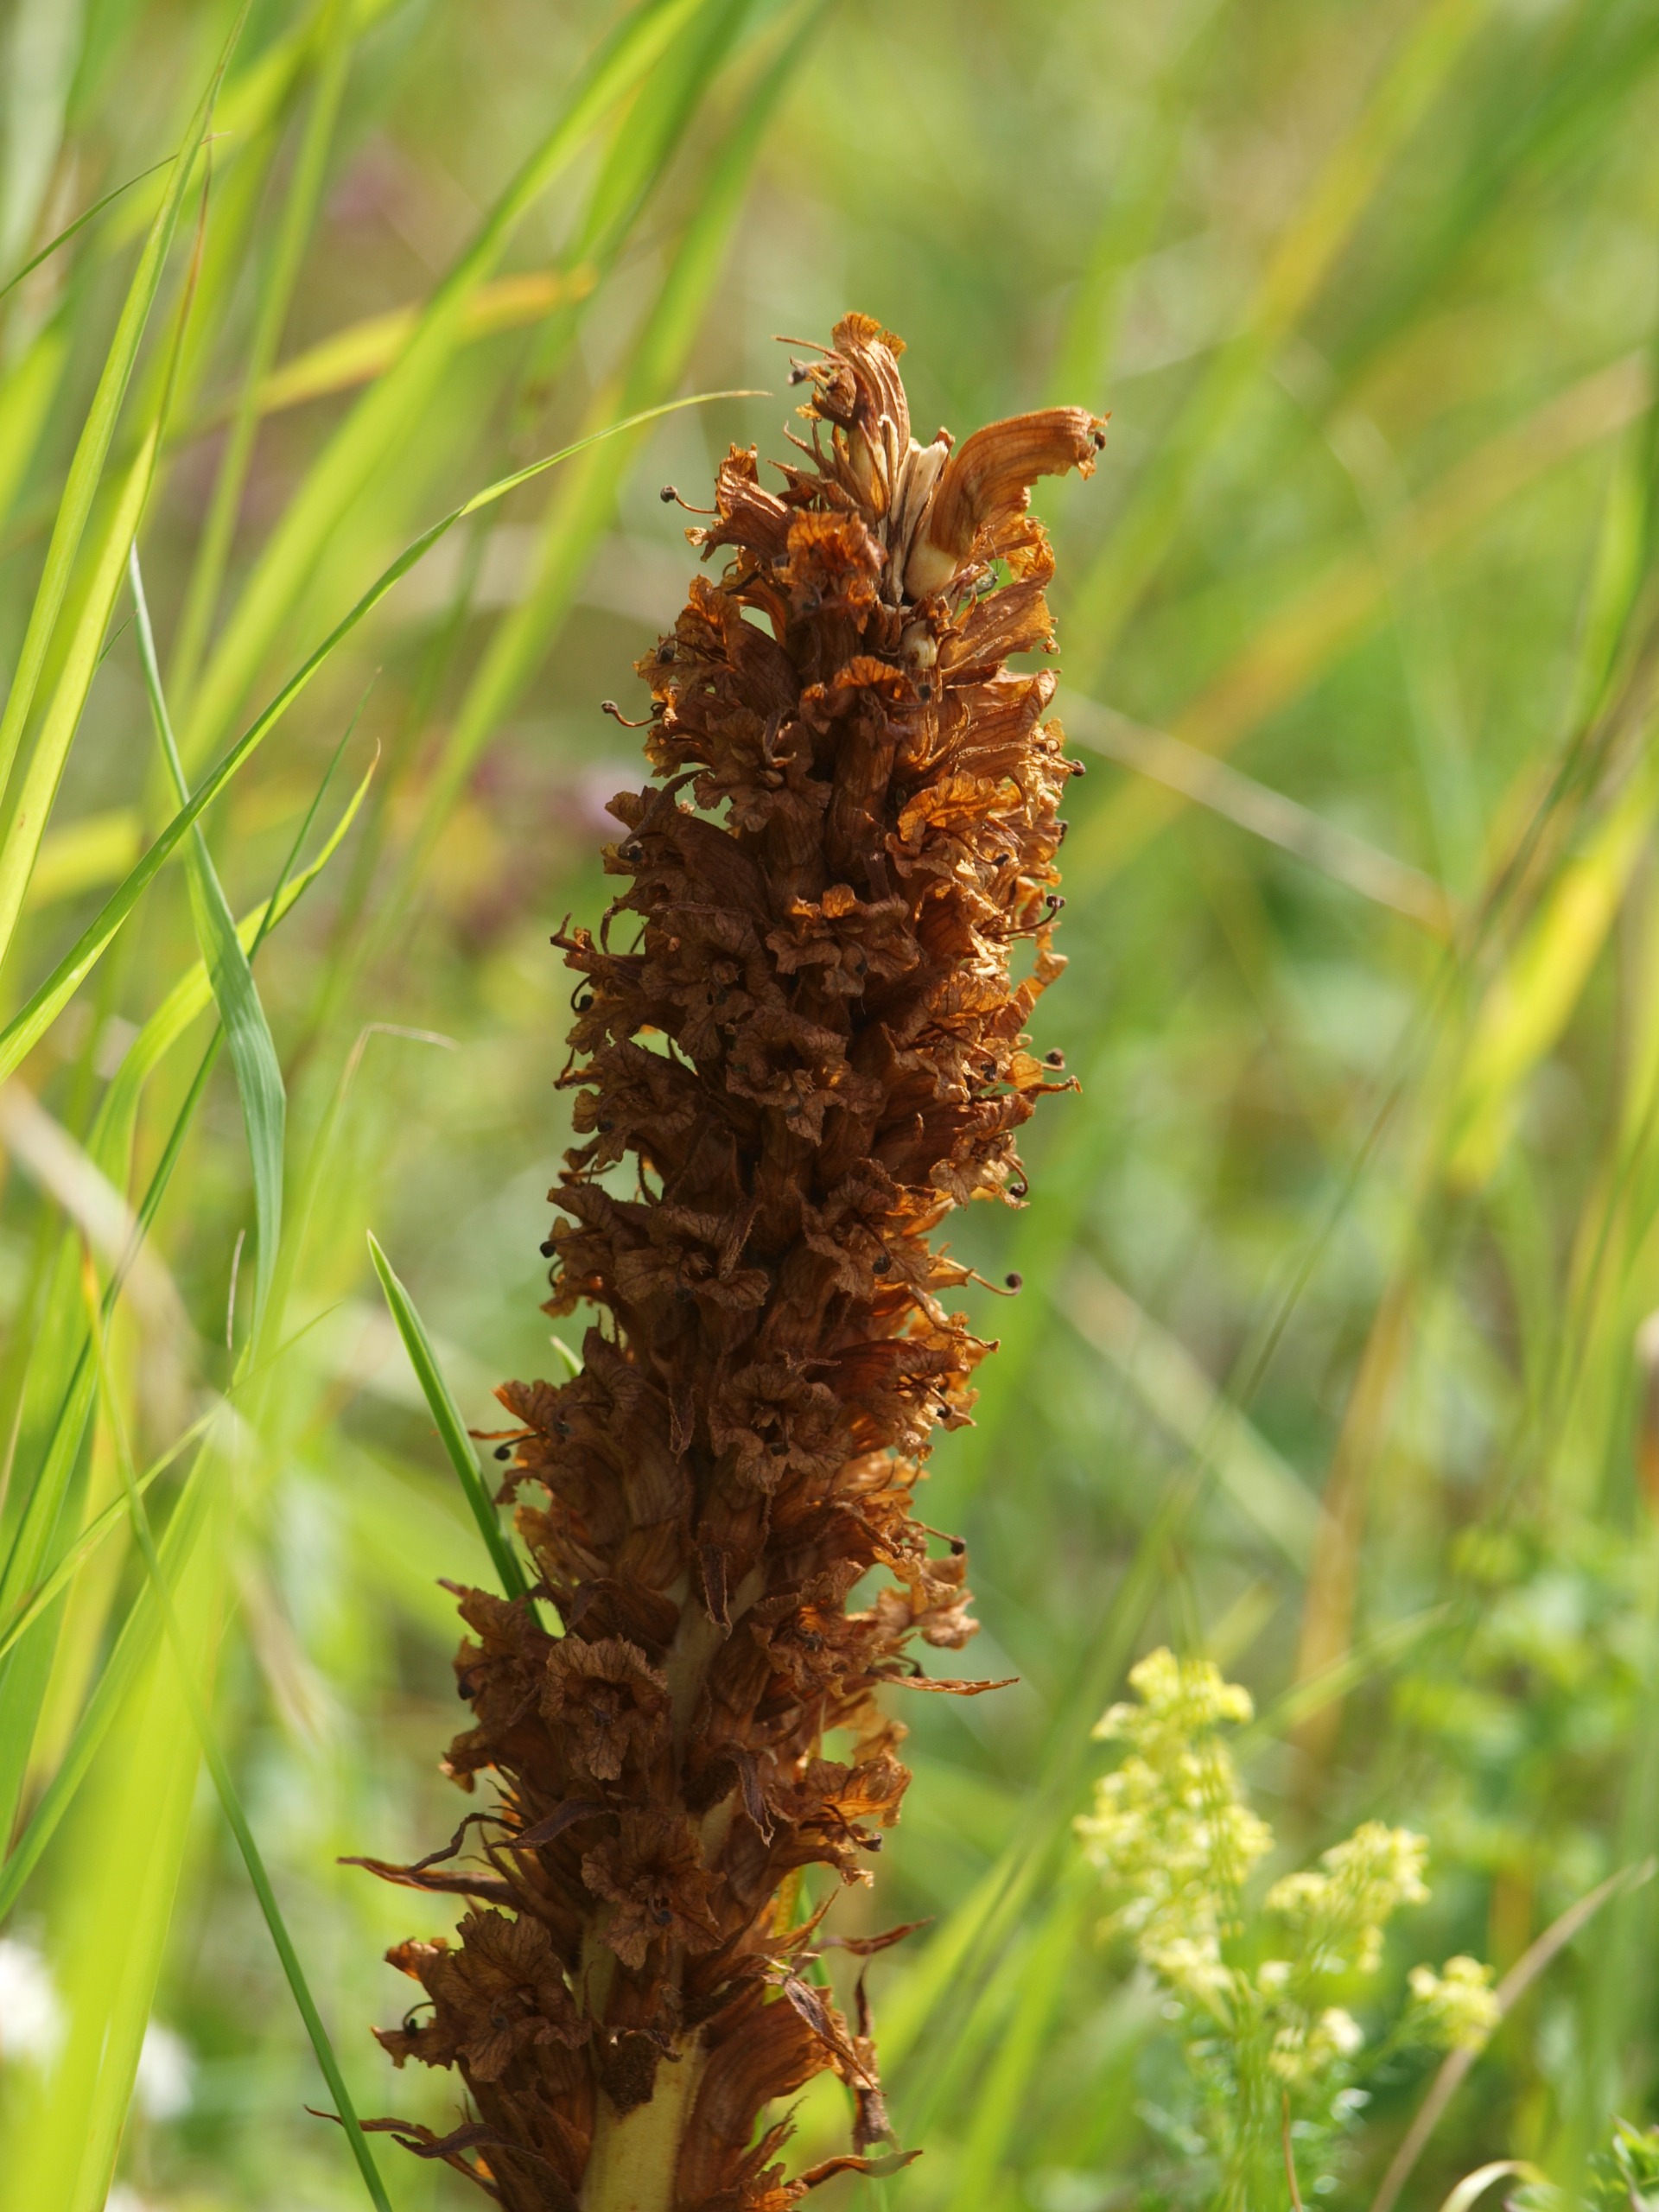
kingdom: Plantae
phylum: Tracheophyta
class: Magnoliopsida
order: Lamiales
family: Orobanchaceae
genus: Orobanche
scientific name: Orobanche elatior
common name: Stor gyvelkvæler
